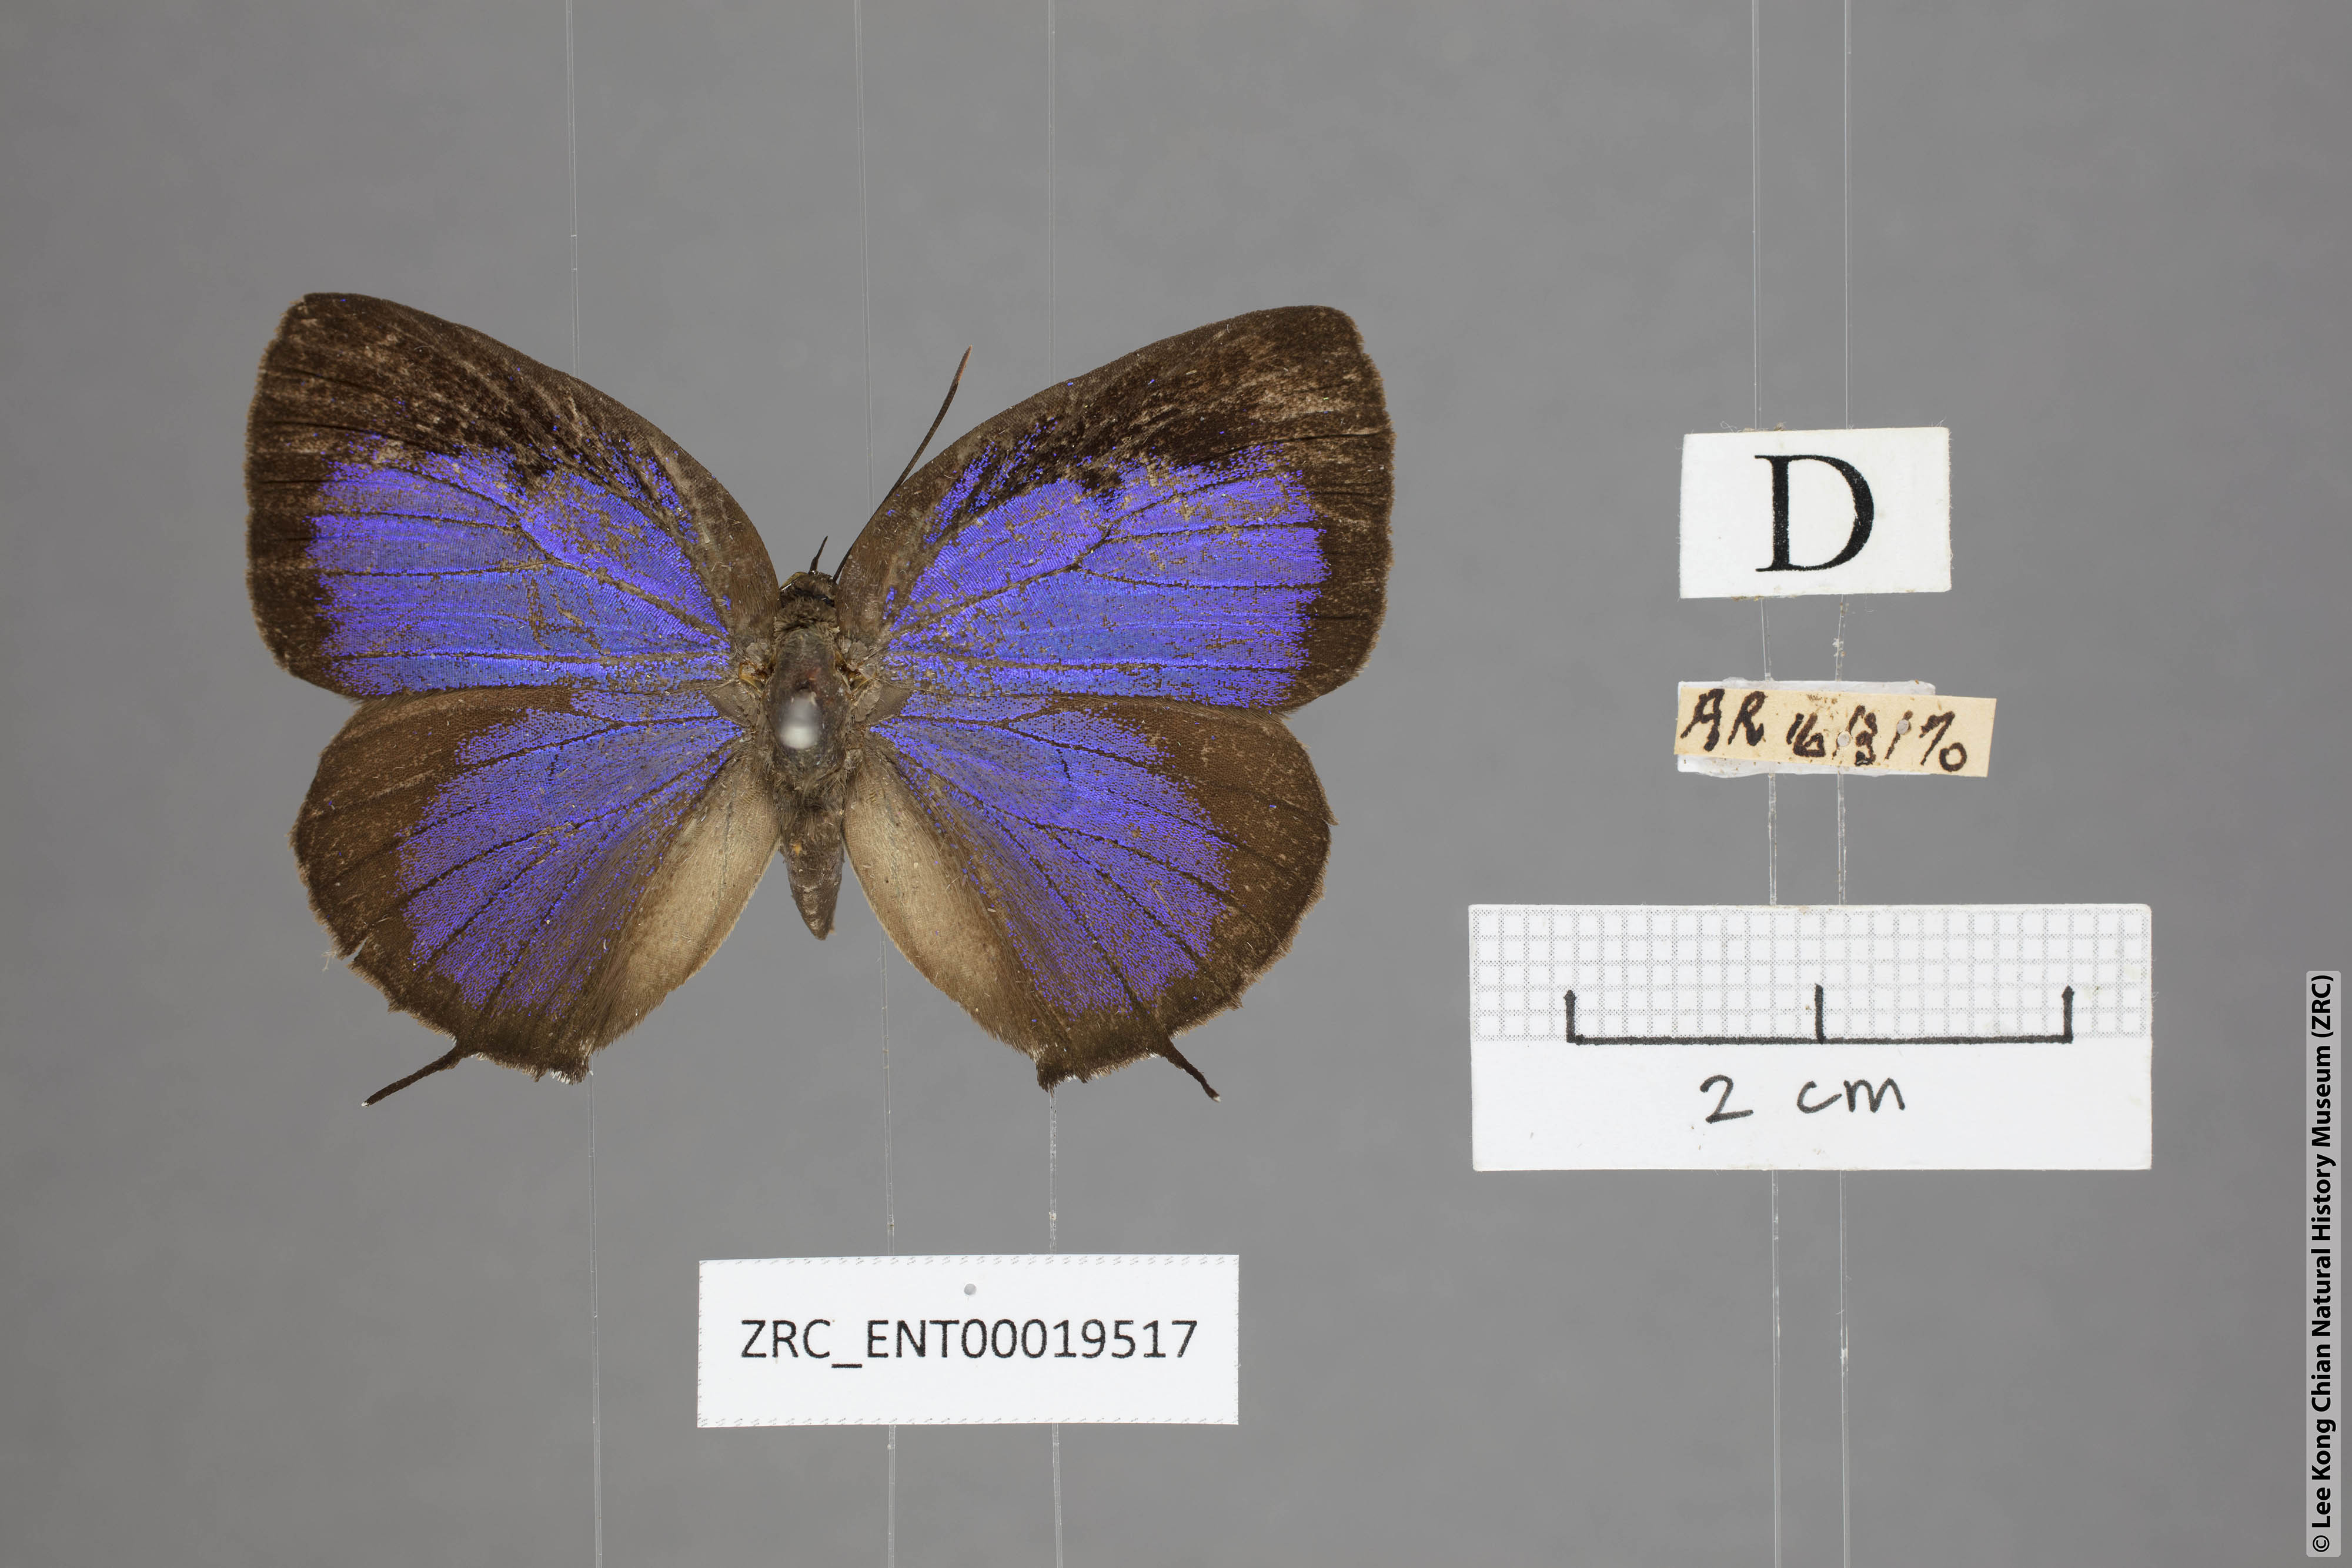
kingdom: Animalia
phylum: Arthropoda
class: Insecta
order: Lepidoptera
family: Lycaenidae
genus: Arhopala
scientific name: Arhopala horsfieldi
